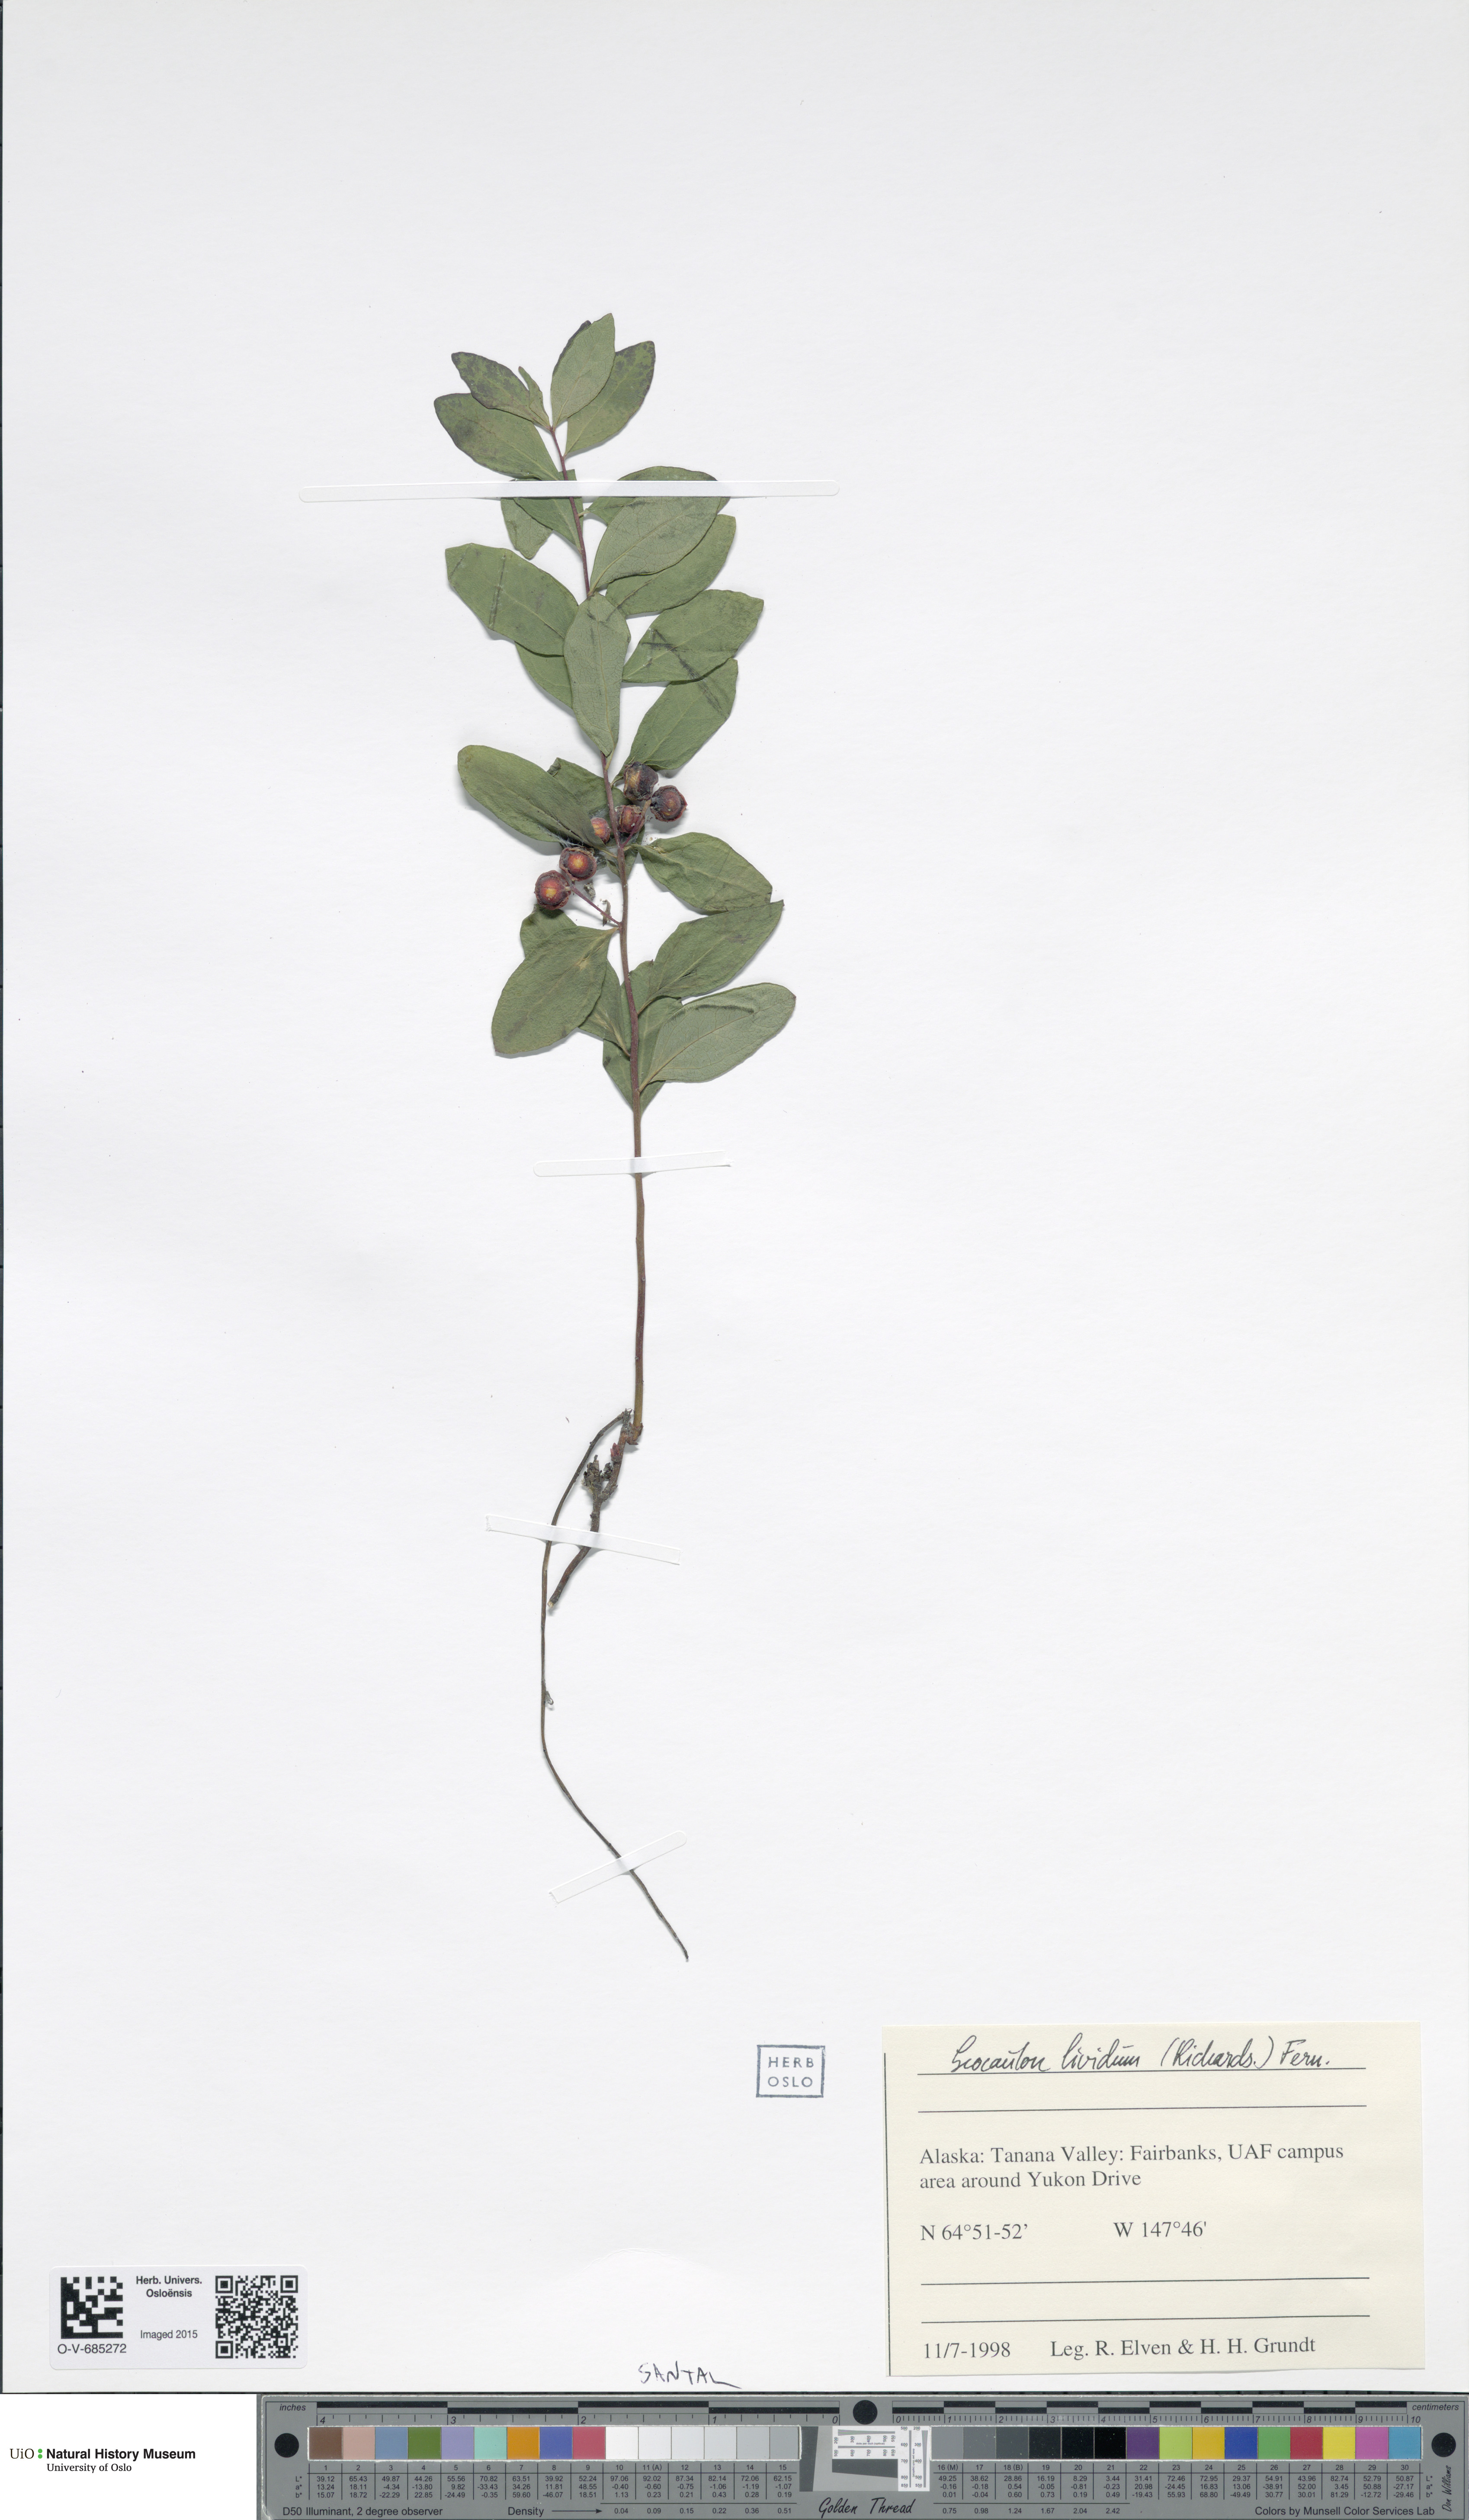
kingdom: Plantae
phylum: Tracheophyta
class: Magnoliopsida
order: Santalales
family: Comandraceae
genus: Geocaulon
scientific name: Geocaulon lividum
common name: Earthberry
